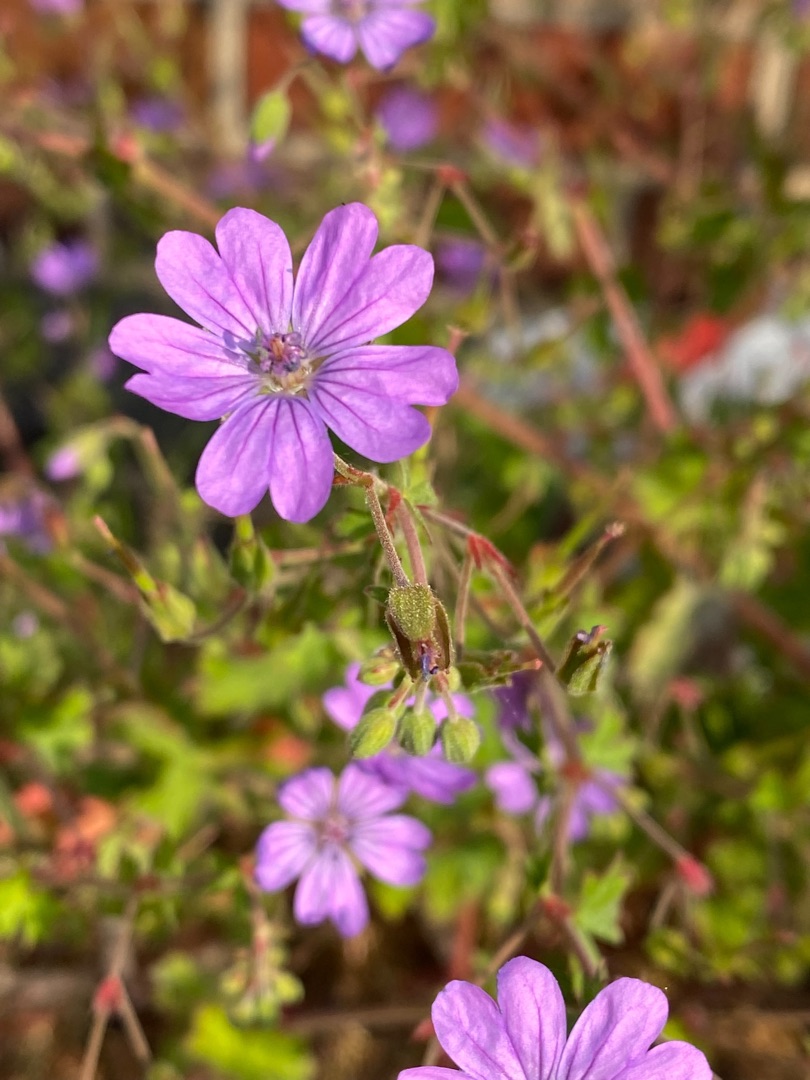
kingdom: Plantae
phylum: Tracheophyta
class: Magnoliopsida
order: Geraniales
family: Geraniaceae
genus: Geranium
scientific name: Geranium pyrenaicum
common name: Pyrenæisk storkenæb
